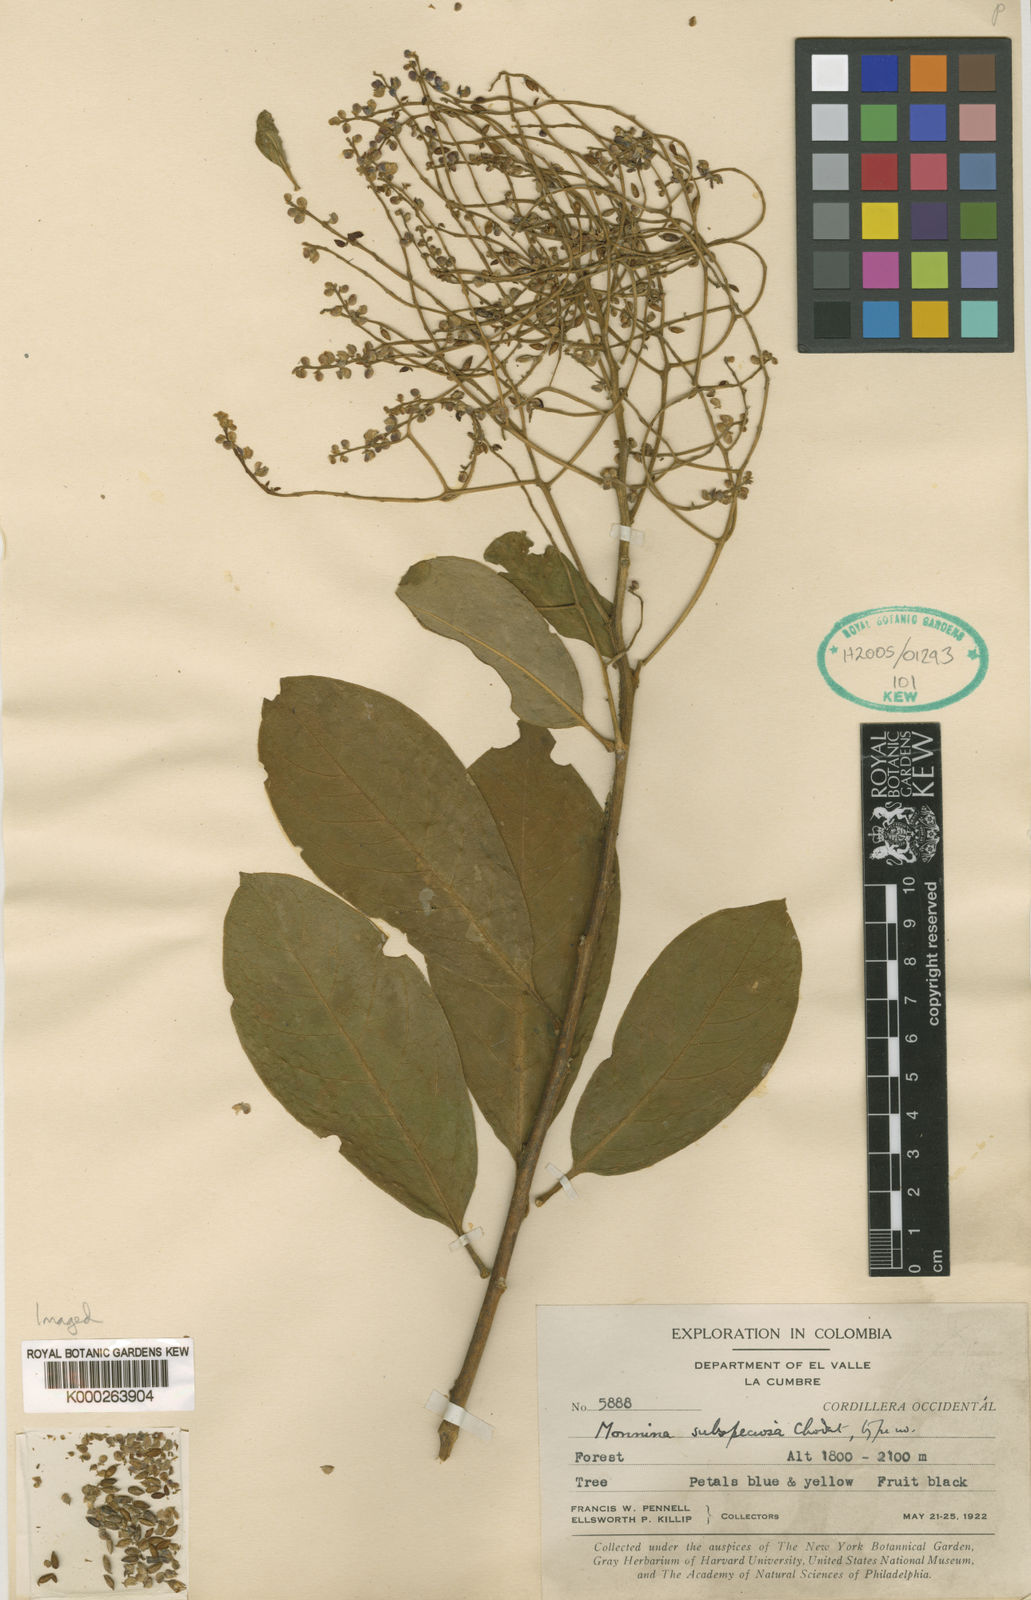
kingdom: Plantae
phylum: Tracheophyta
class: Magnoliopsida
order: Fabales
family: Polygalaceae
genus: Monnina
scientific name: Monnina subspeciosa
